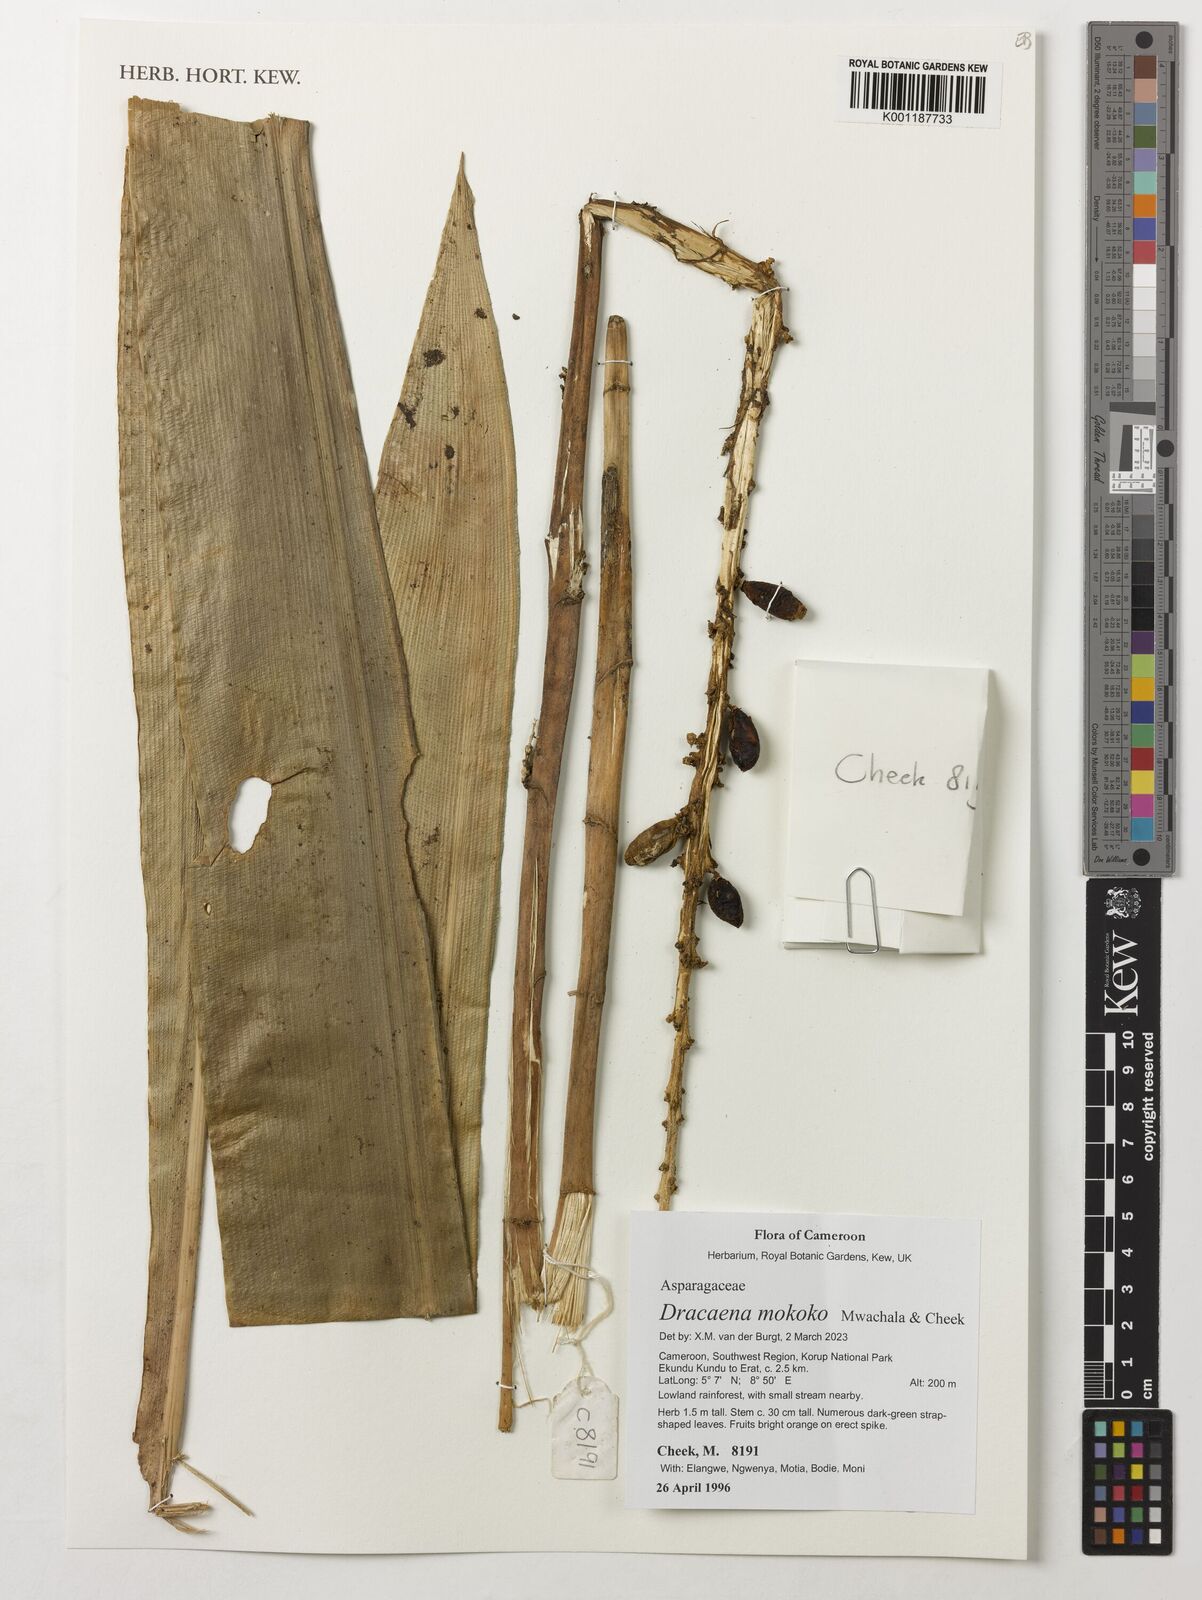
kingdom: Plantae
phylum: Tracheophyta
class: Liliopsida
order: Asparagales
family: Asparagaceae
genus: Dracaena
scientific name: Dracaena mokoko
